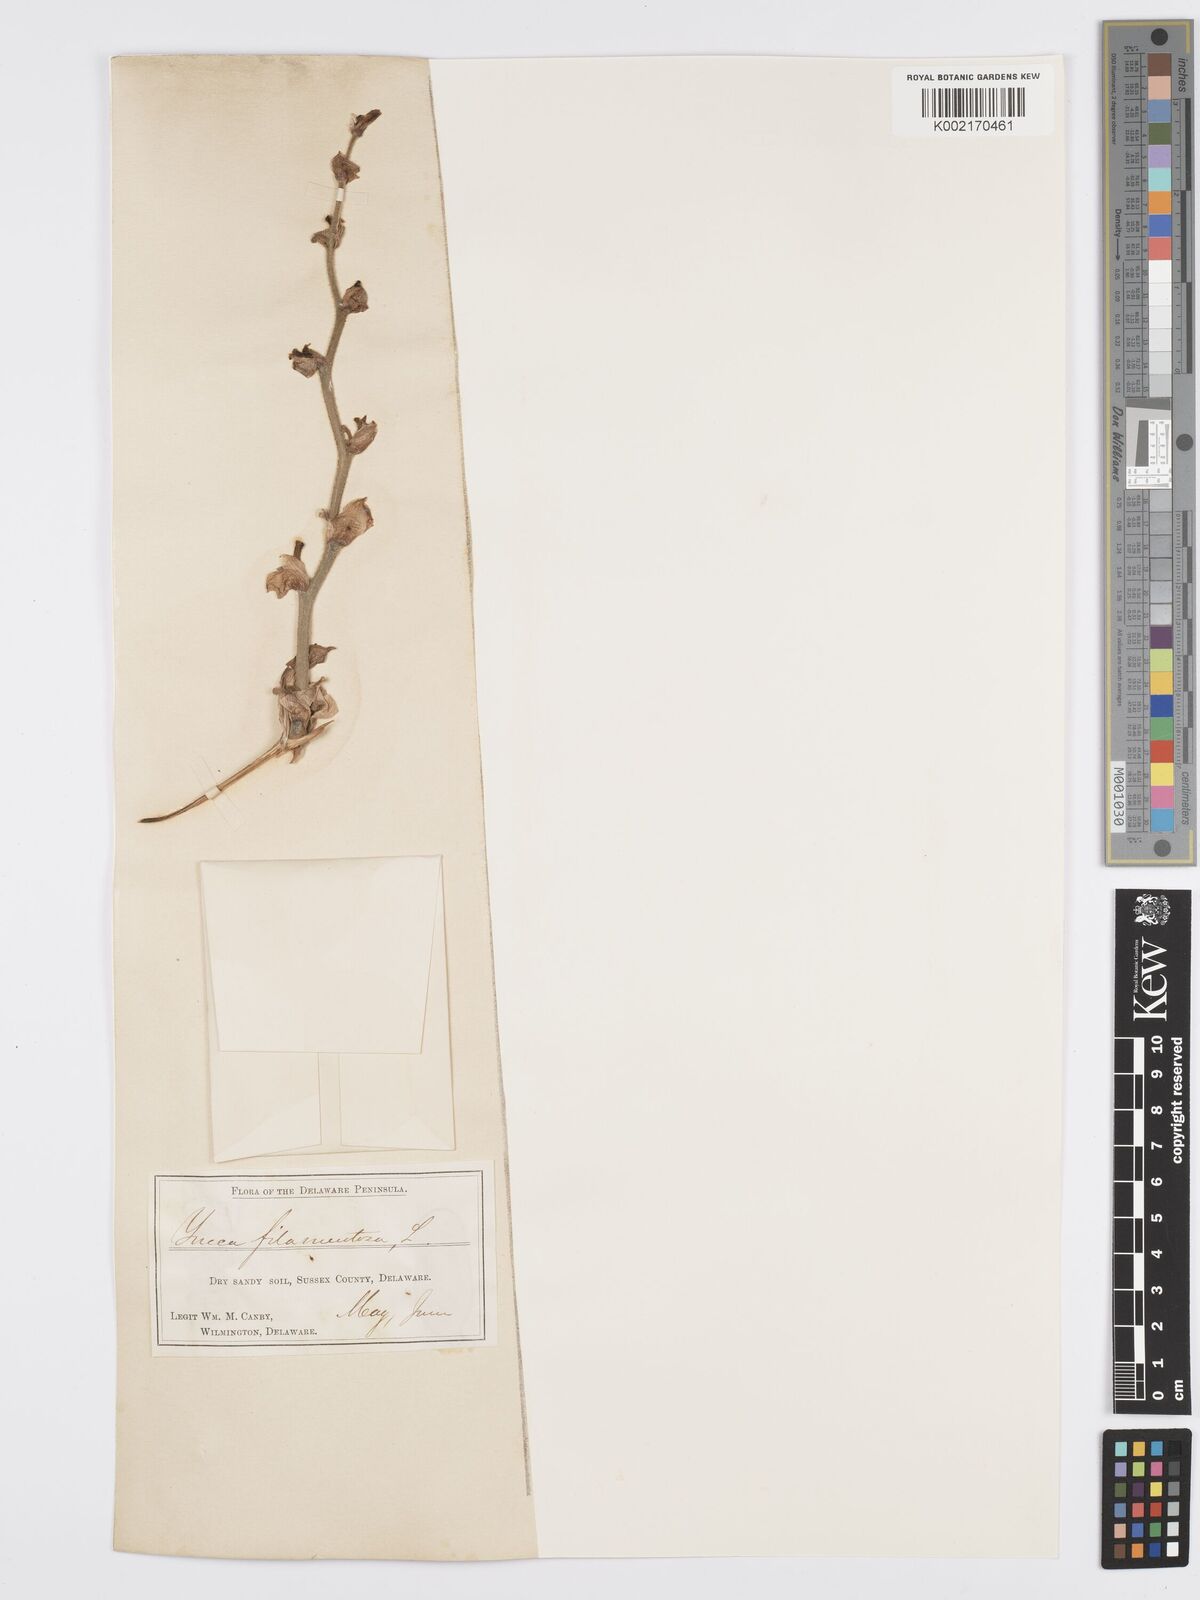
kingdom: Plantae
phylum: Tracheophyta
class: Liliopsida
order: Asparagales
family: Asparagaceae
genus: Yucca
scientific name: Yucca filamentosa
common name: Adam's-needle
